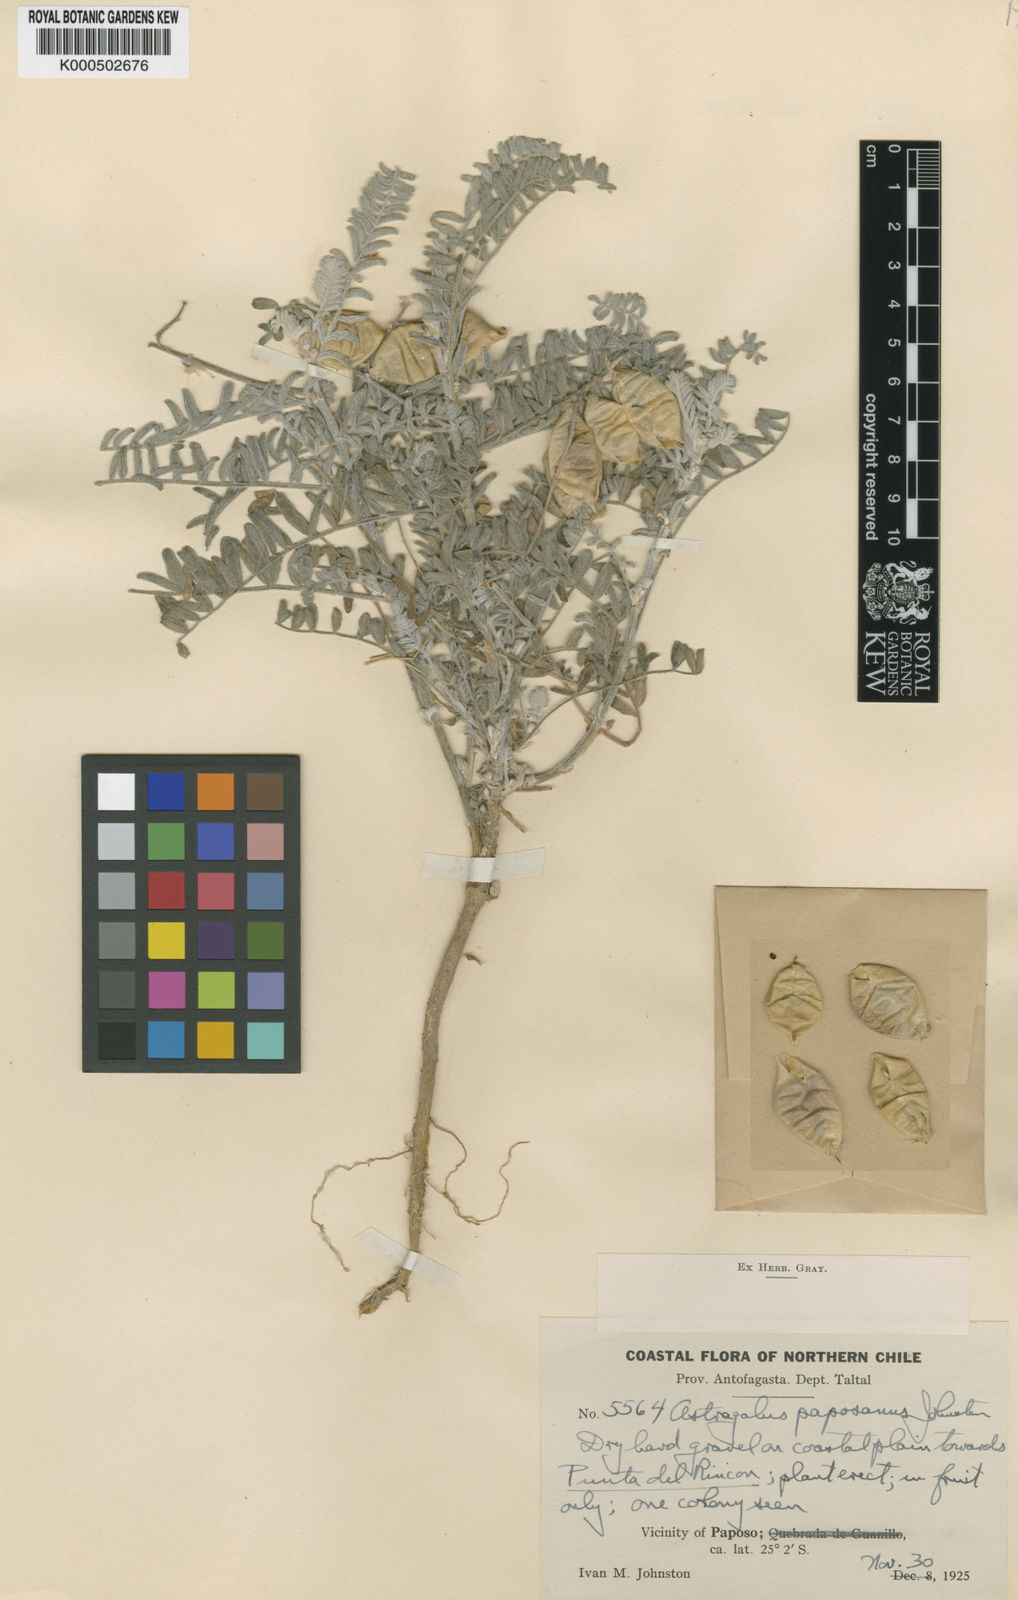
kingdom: Plantae
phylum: Tracheophyta
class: Magnoliopsida
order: Fabales
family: Fabaceae
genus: Astragalus
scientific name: Astragalus paposanus
